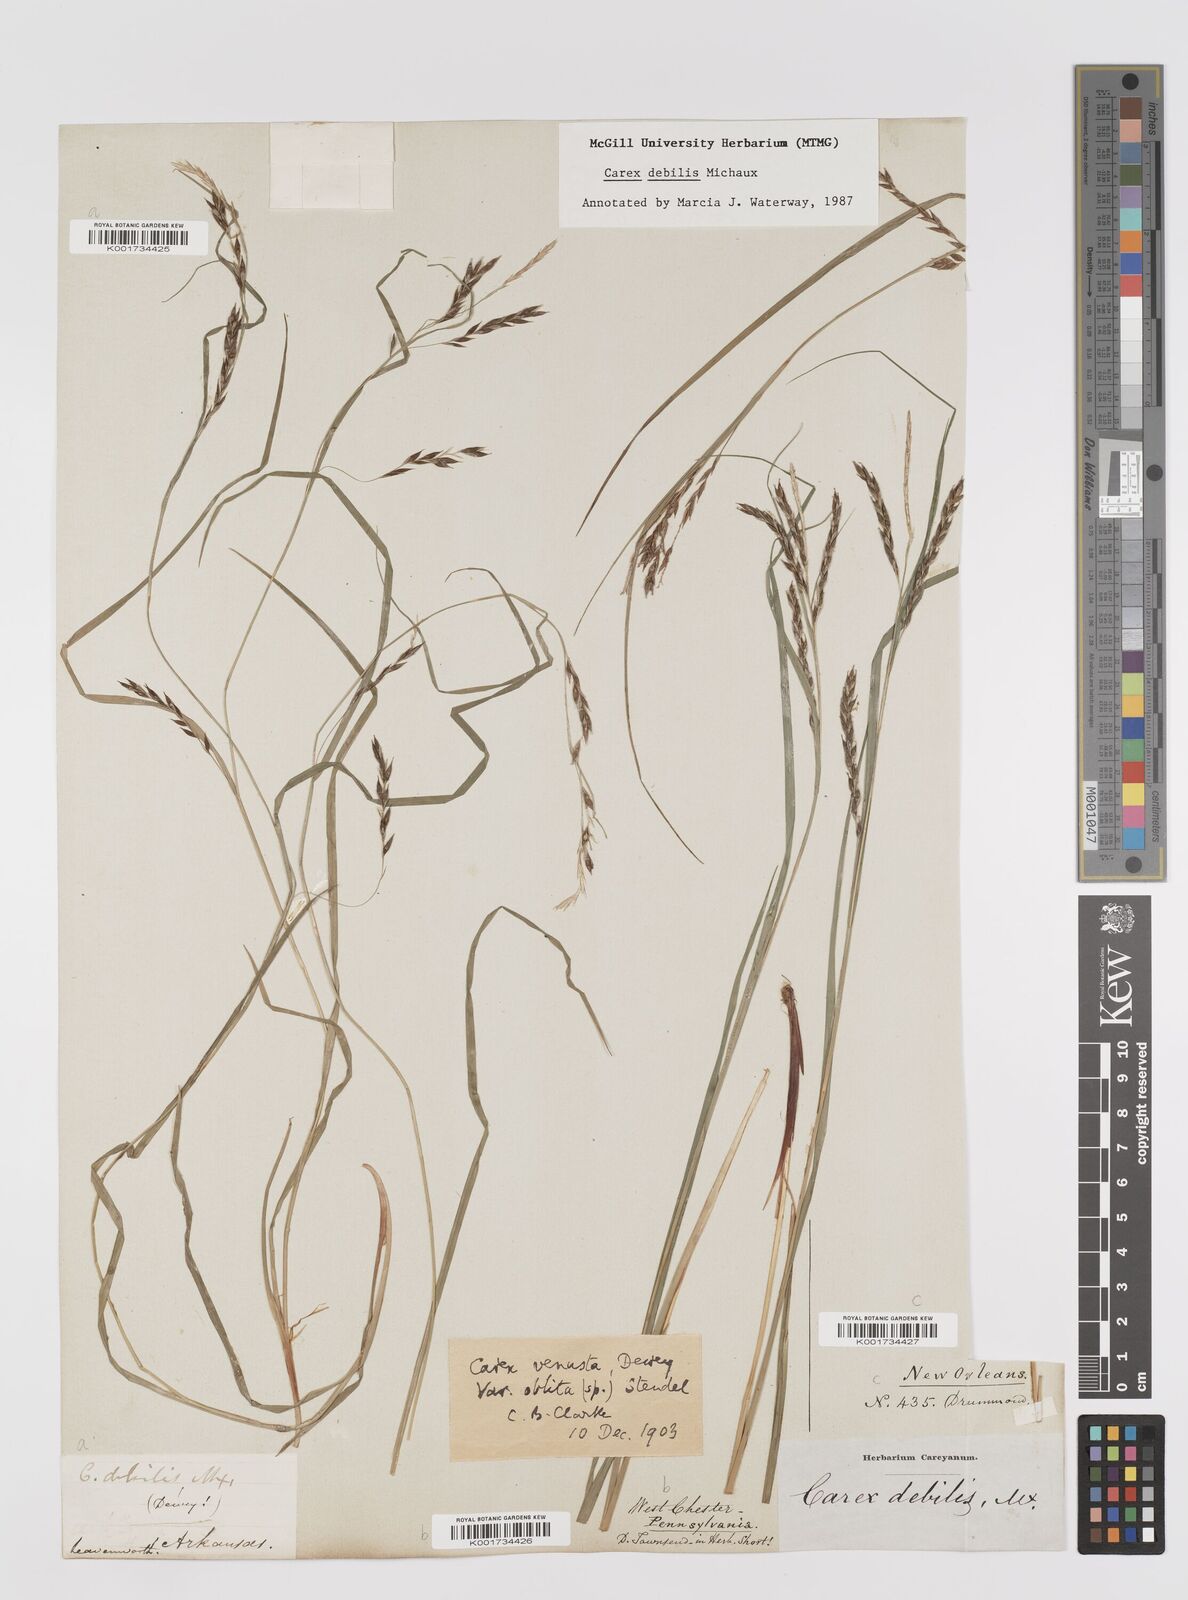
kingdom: Plantae
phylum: Tracheophyta
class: Liliopsida
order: Poales
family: Cyperaceae
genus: Carex
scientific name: Carex debilis
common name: White-edge sedge
